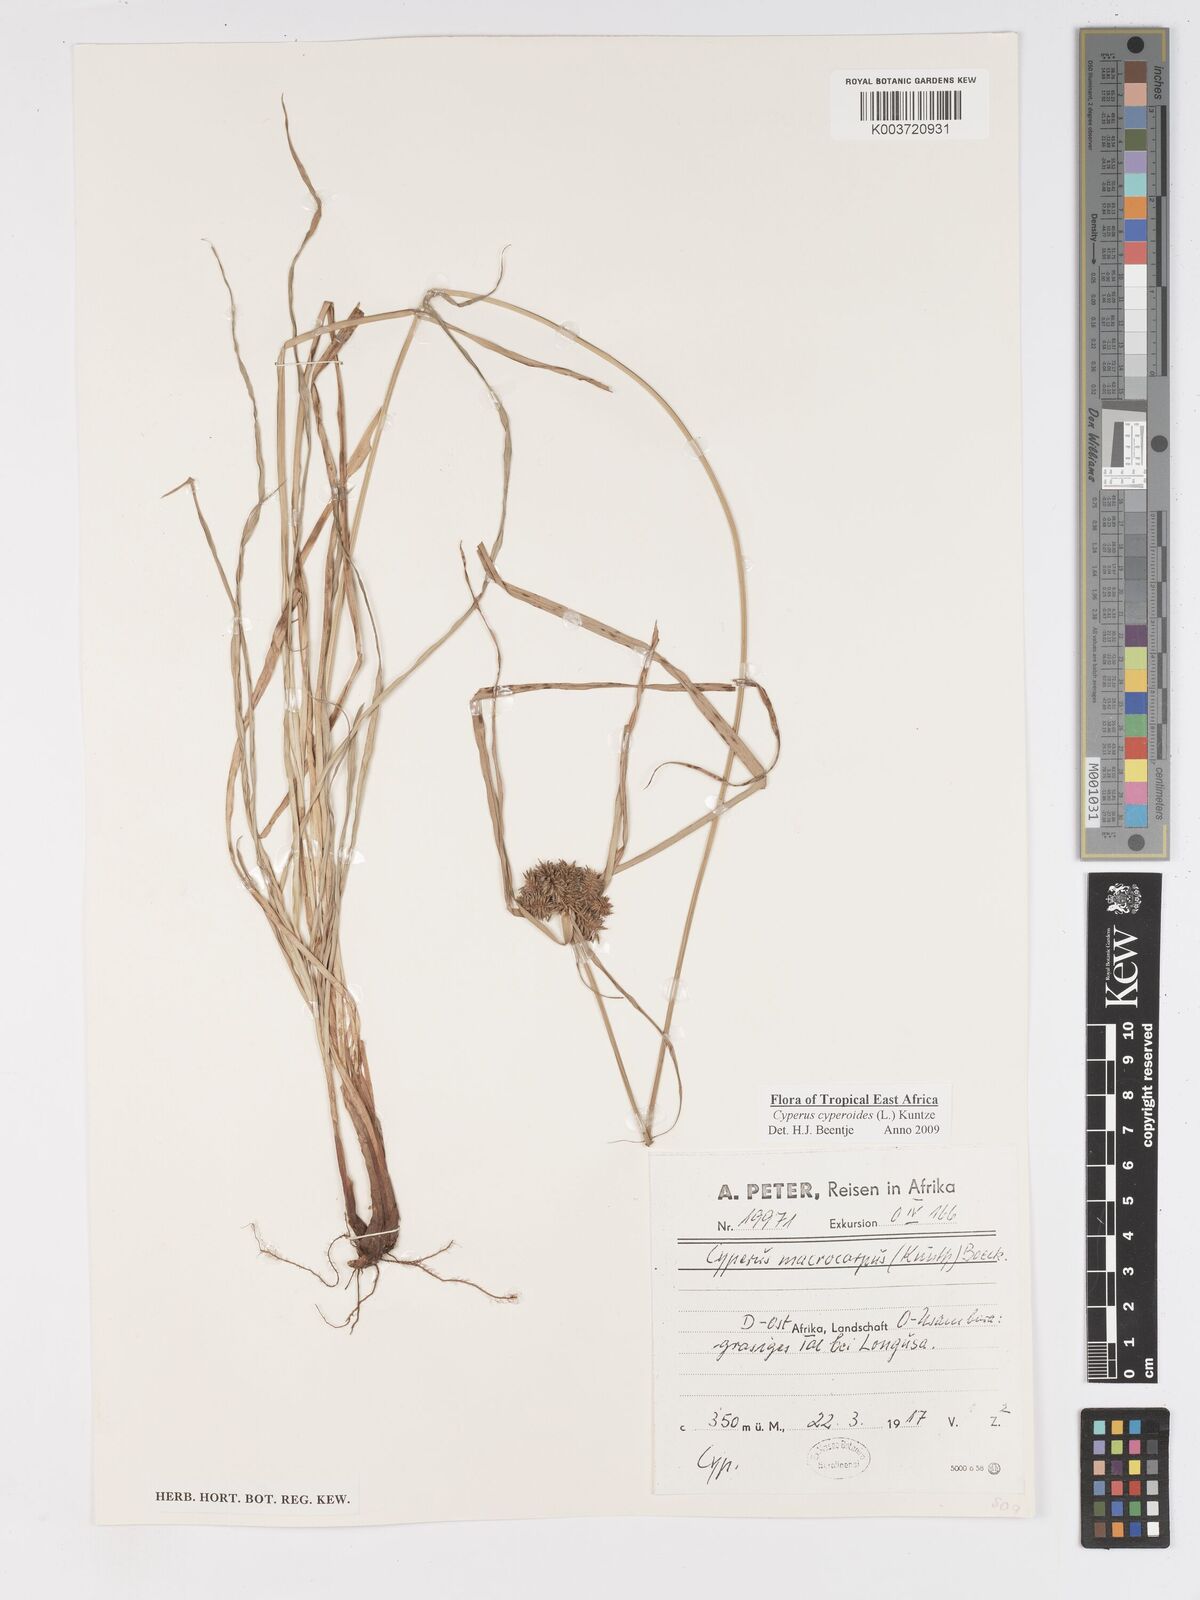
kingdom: Plantae
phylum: Tracheophyta
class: Liliopsida
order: Poales
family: Cyperaceae
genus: Cyperus
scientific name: Cyperus macrocarpus
